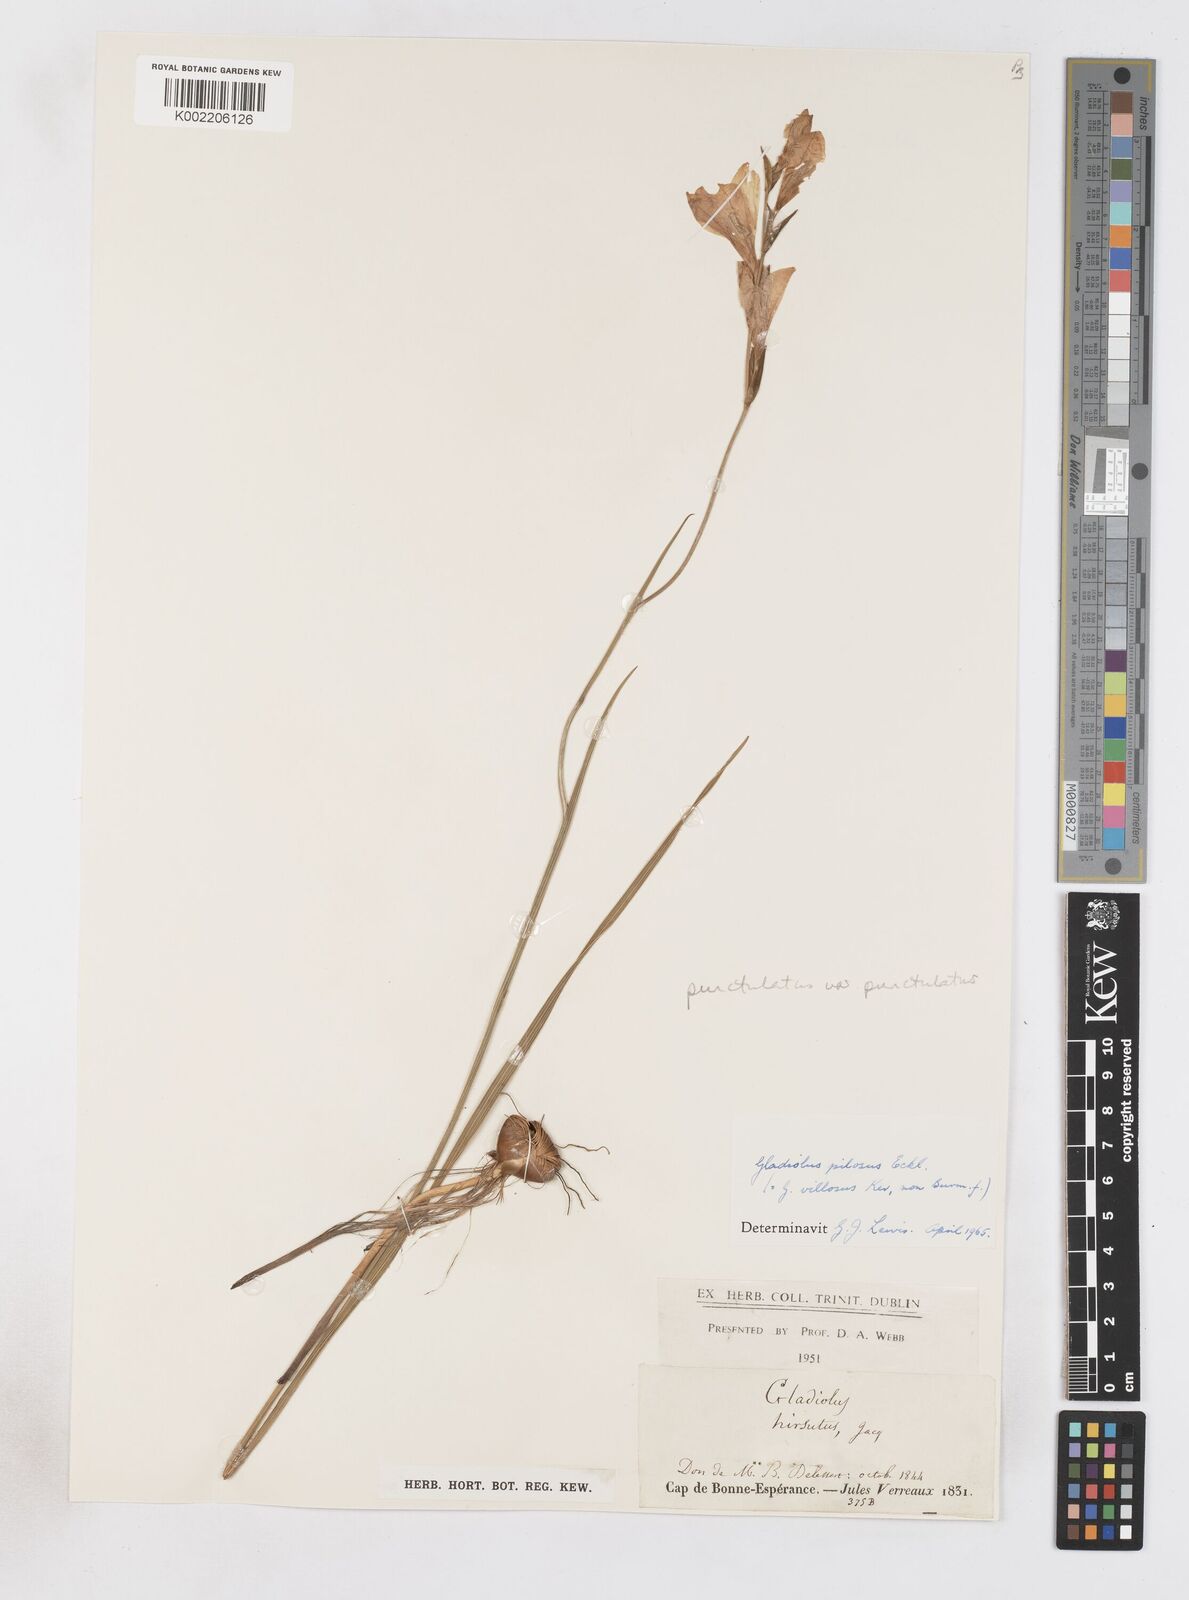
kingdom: Plantae
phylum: Tracheophyta
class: Liliopsida
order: Asparagales
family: Iridaceae
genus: Gladiolus
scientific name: Gladiolus hirsutus
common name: Small pink afrikaner
